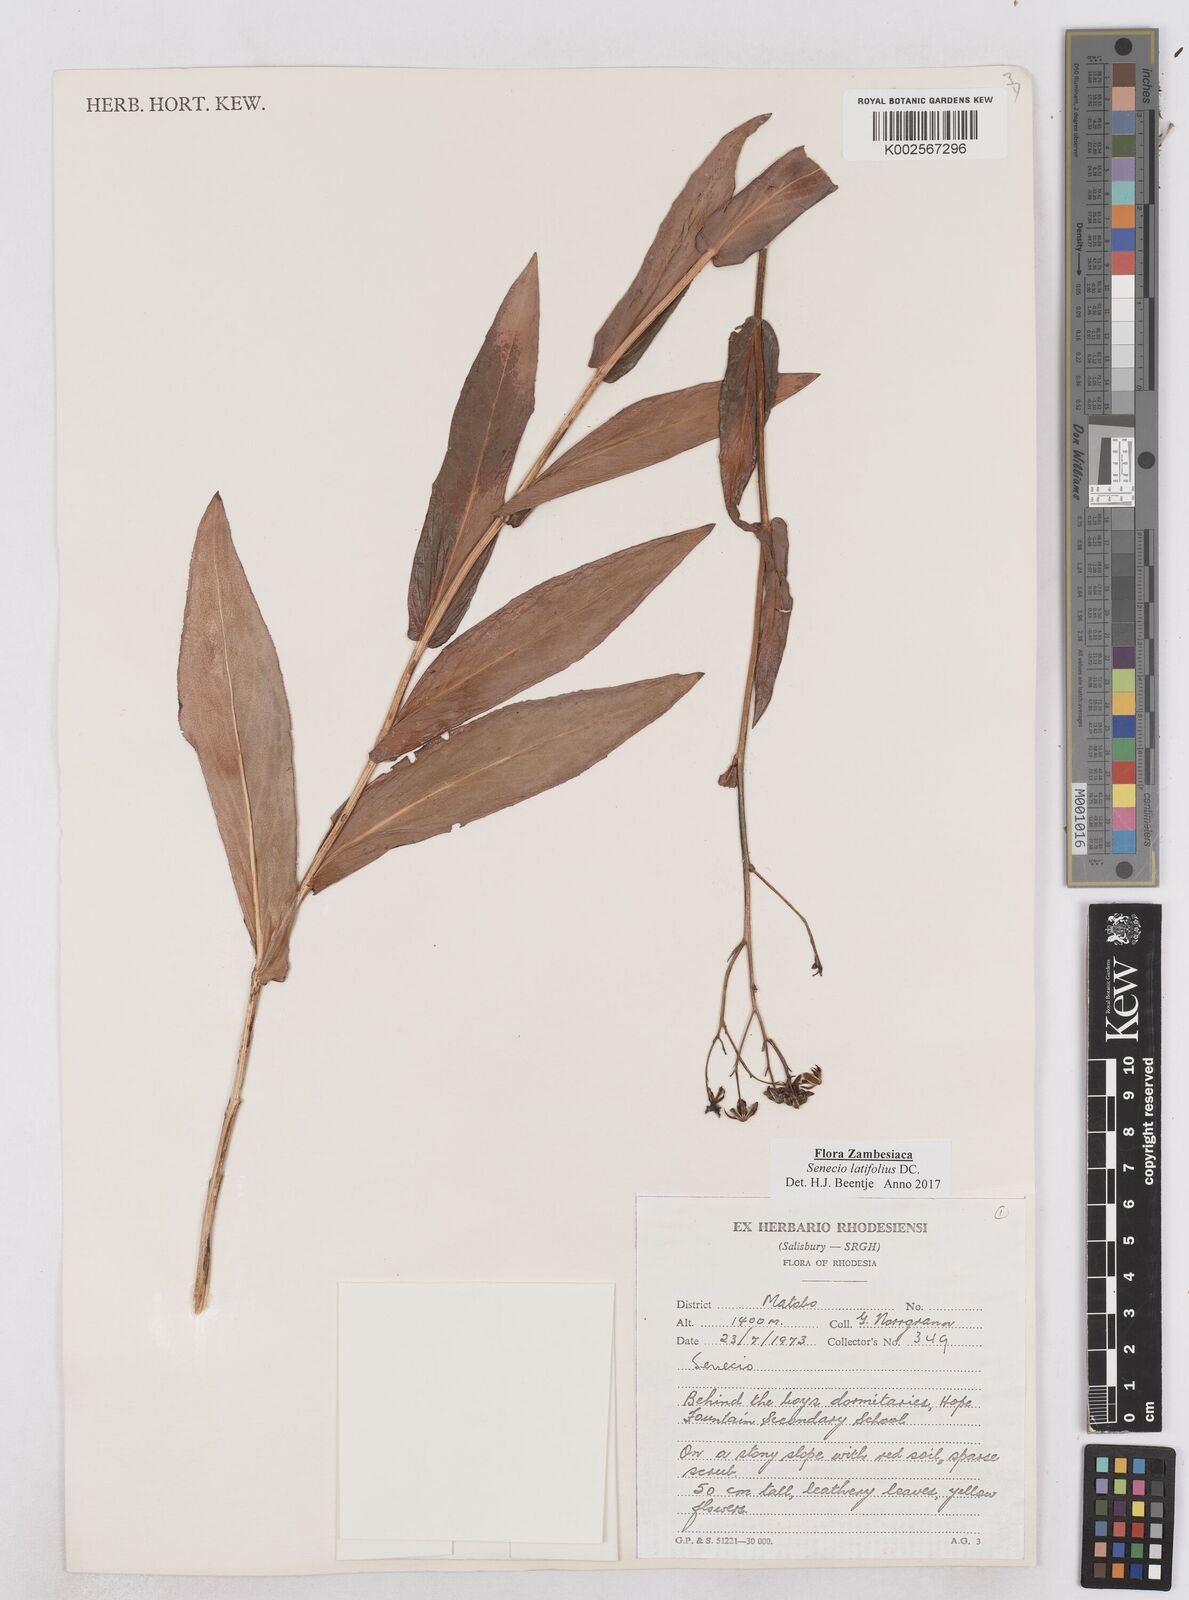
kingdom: Plantae
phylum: Tracheophyta
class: Magnoliopsida
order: Asterales
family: Asteraceae
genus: Senecio
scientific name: Senecio latifolius
